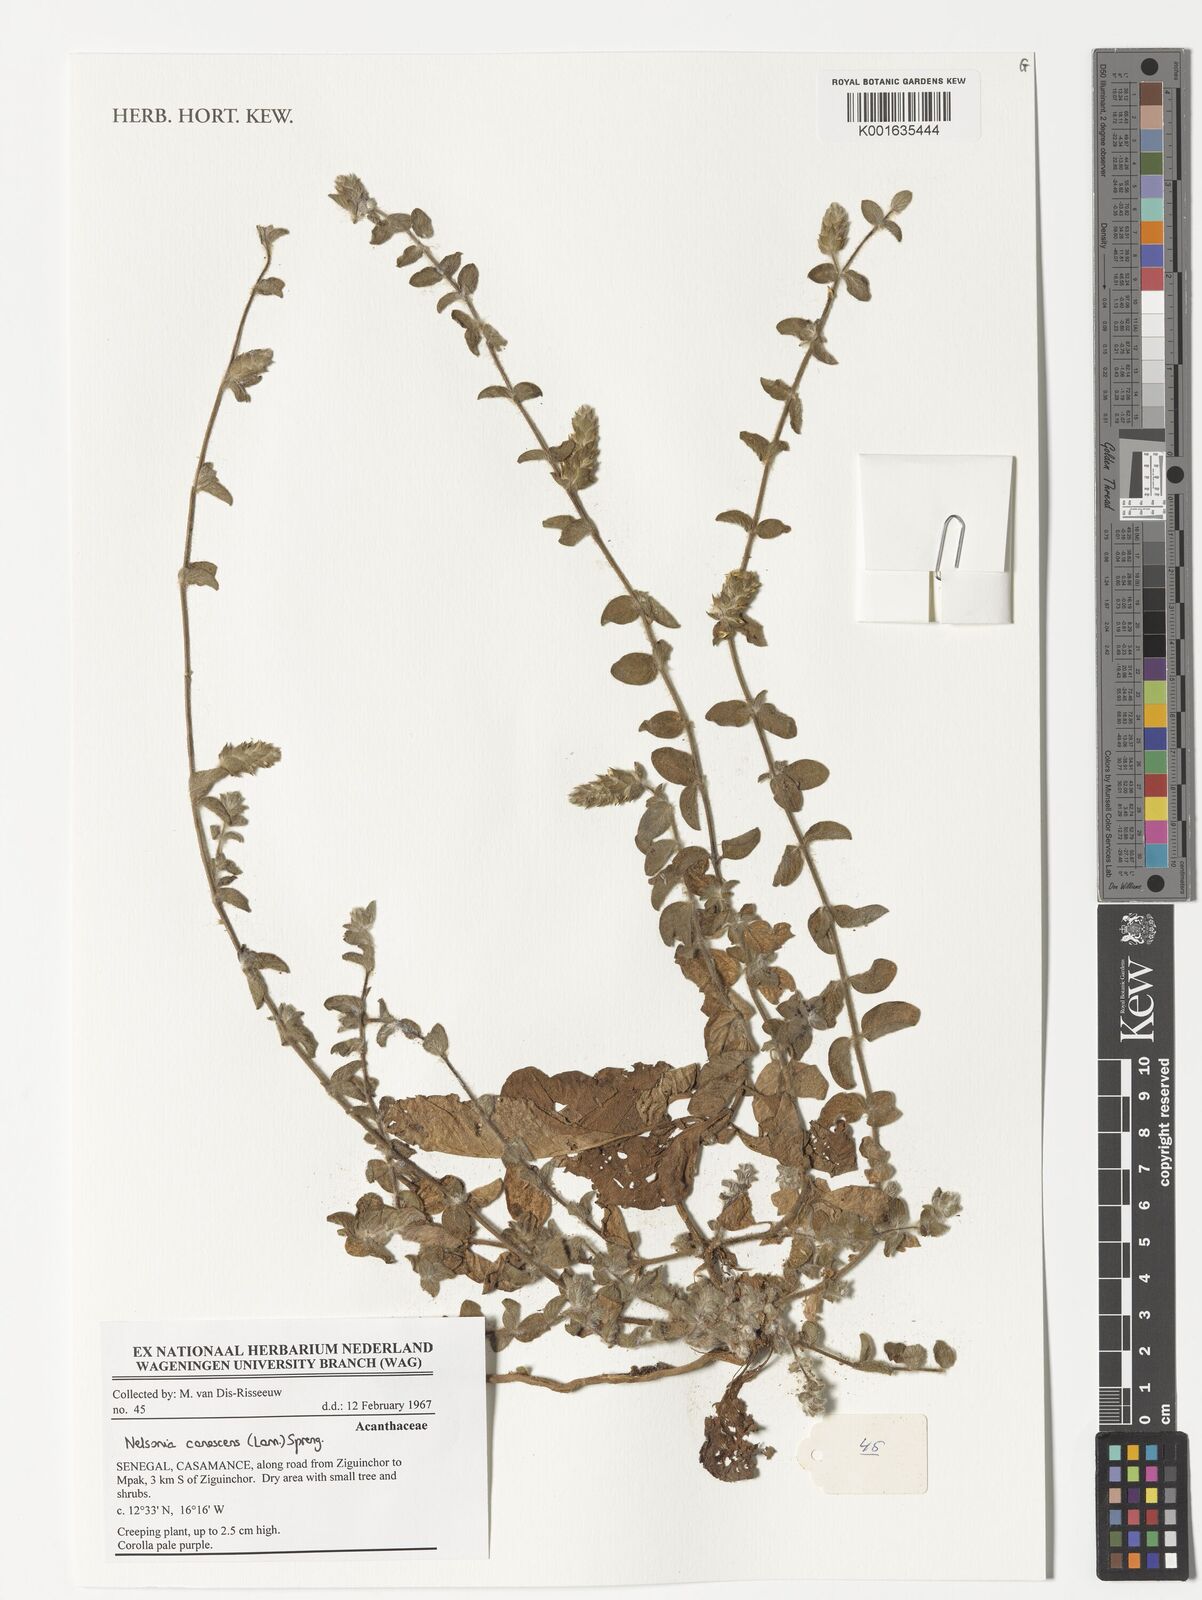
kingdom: Plantae
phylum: Tracheophyta
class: Magnoliopsida
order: Lamiales
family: Acanthaceae
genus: Nelsonia
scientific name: Nelsonia canescens
